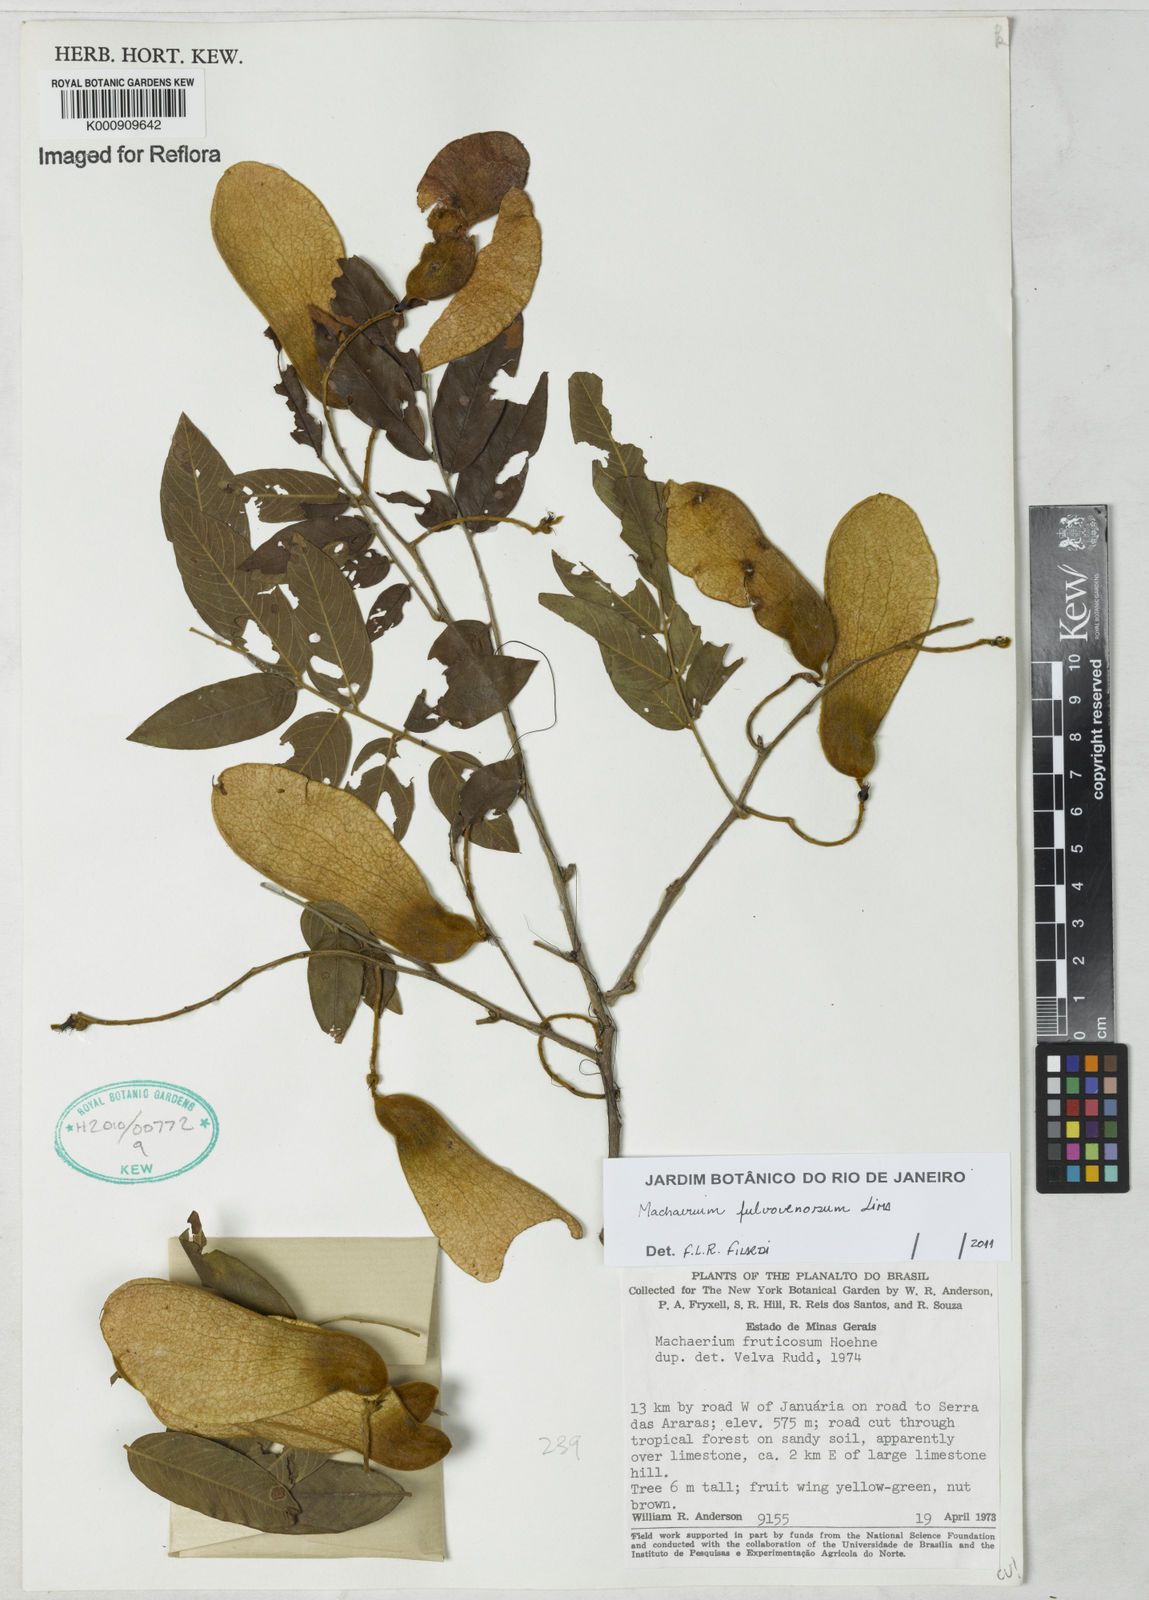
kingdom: Plantae
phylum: Tracheophyta
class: Magnoliopsida
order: Fabales
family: Fabaceae
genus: Machaerium
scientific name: Machaerium fulvovenosum
